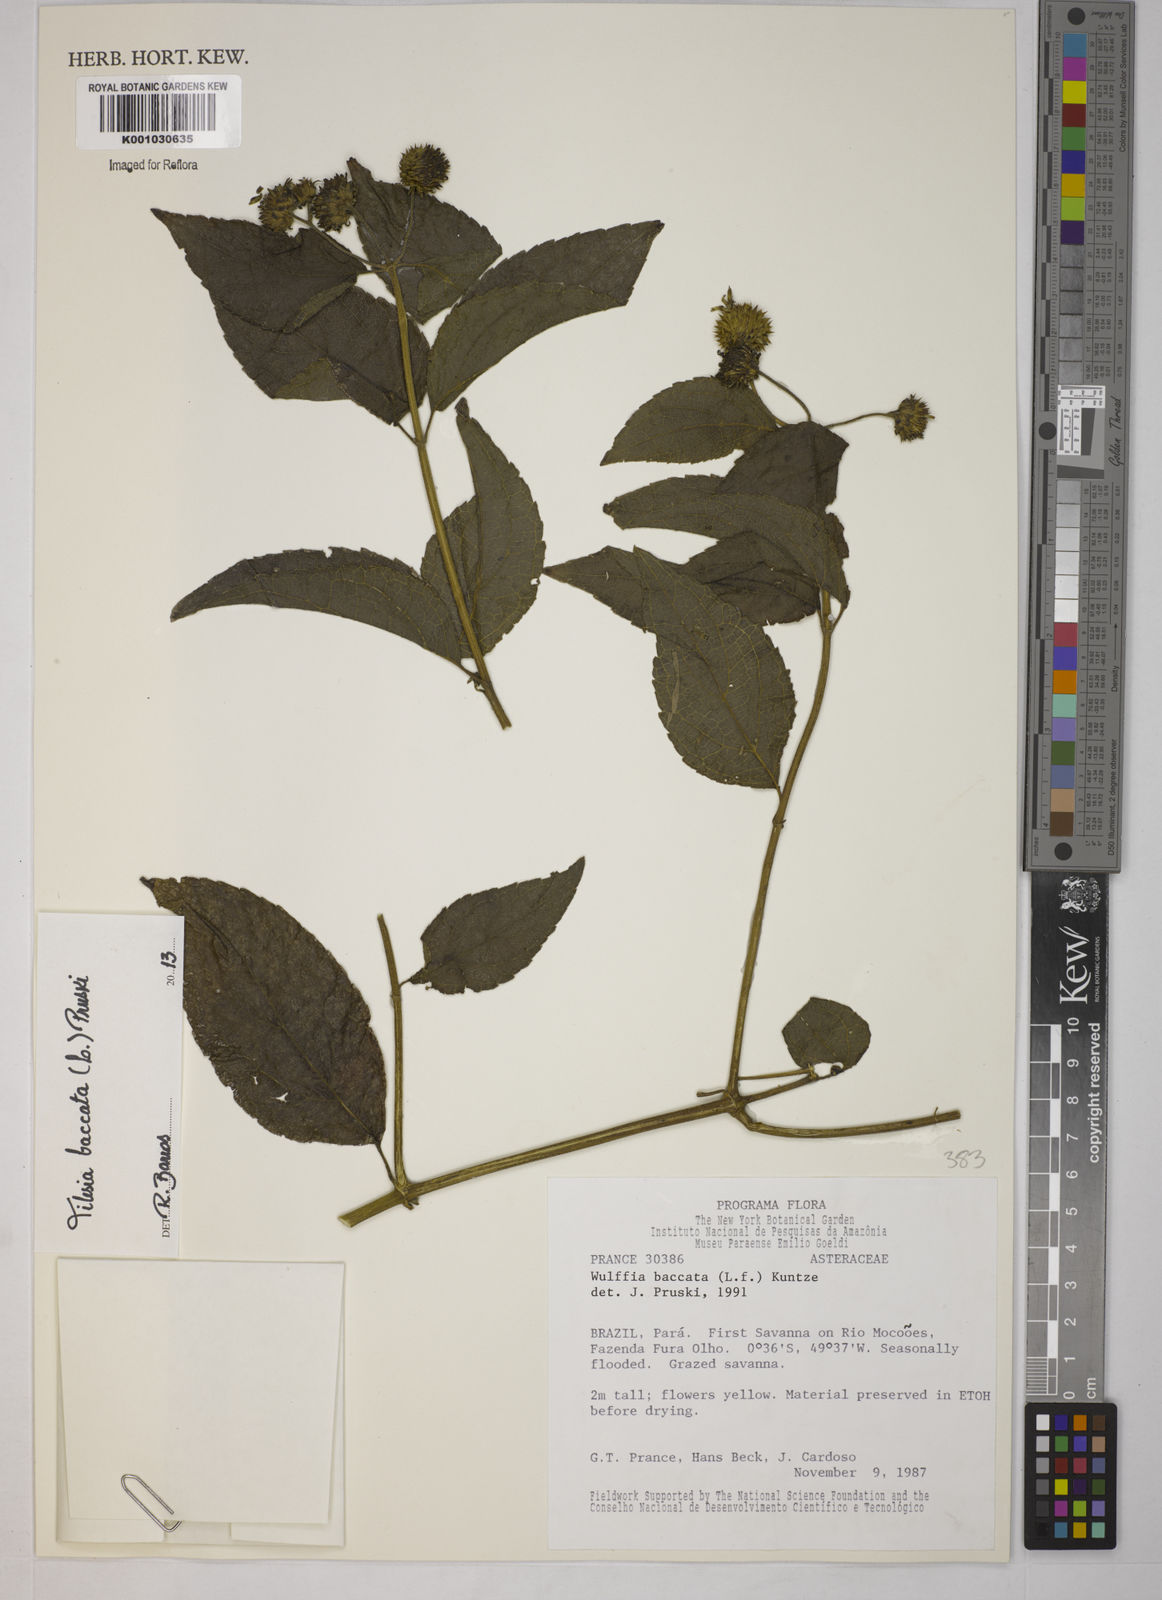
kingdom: Plantae
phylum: Tracheophyta
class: Magnoliopsida
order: Asterales
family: Asteraceae
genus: Tilesia
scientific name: Tilesia baccata
